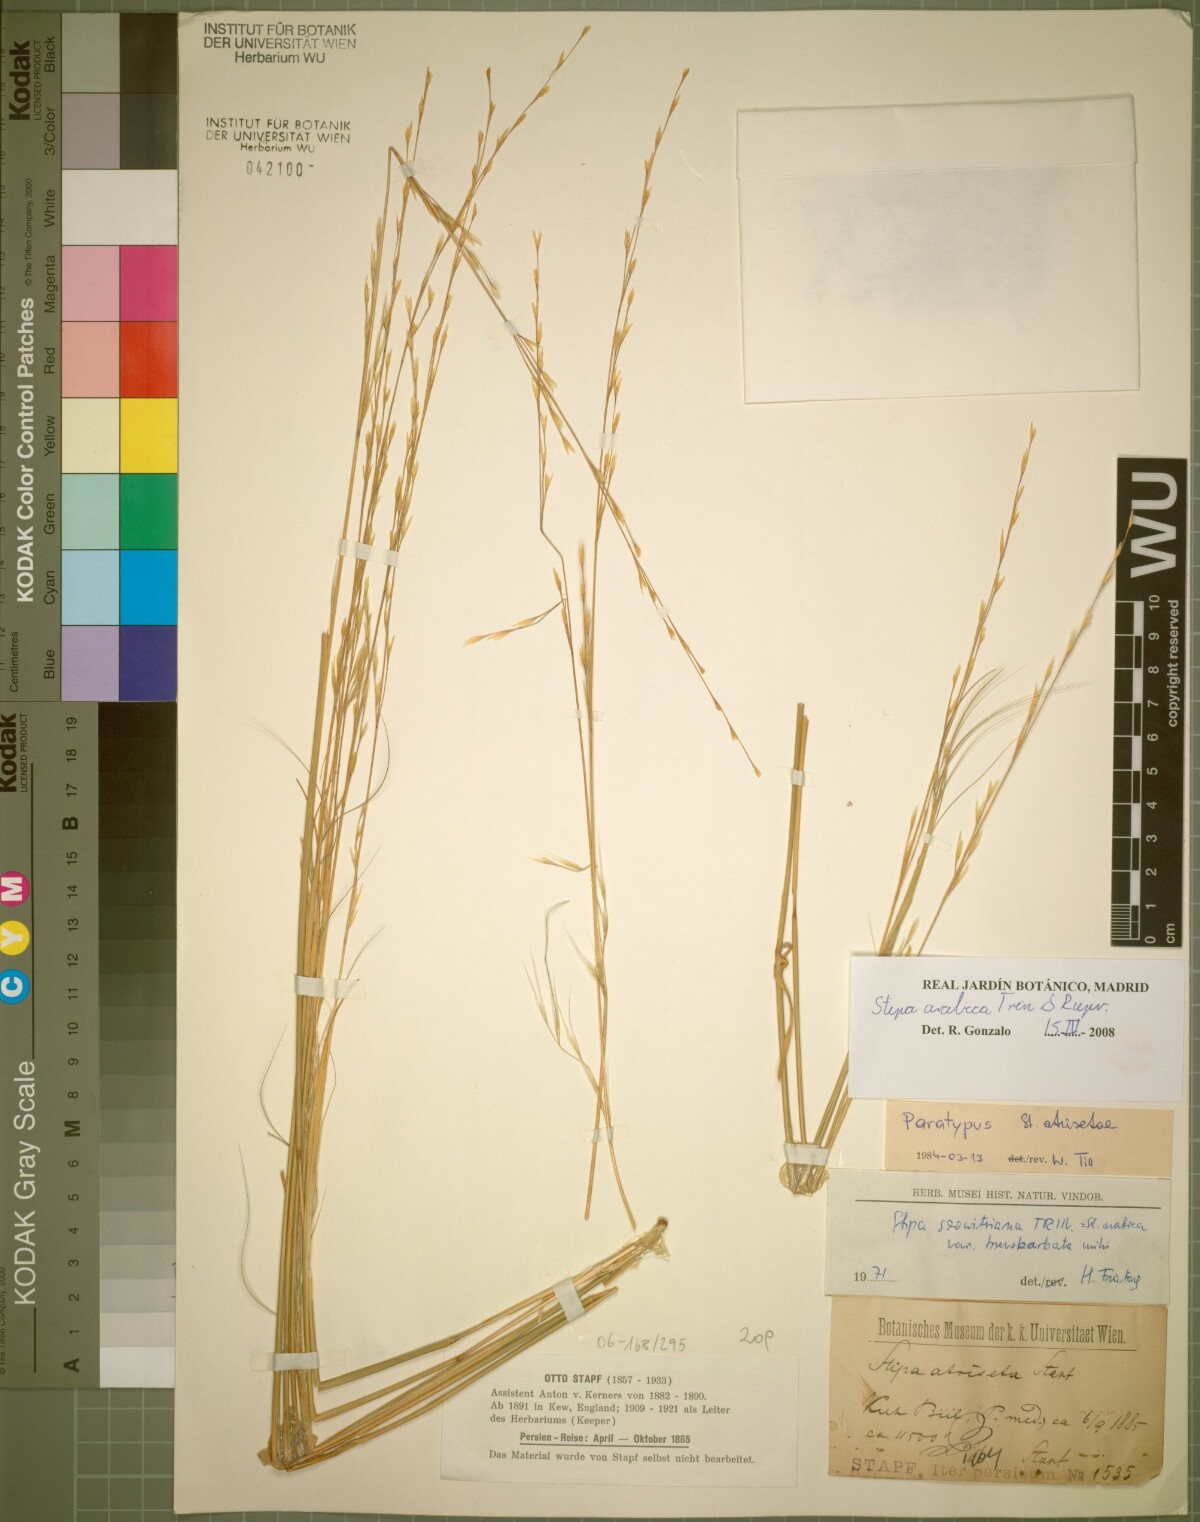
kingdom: Plantae
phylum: Tracheophyta
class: Liliopsida
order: Poales
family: Poaceae
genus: Stipa
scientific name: Stipa hohenackeriana
